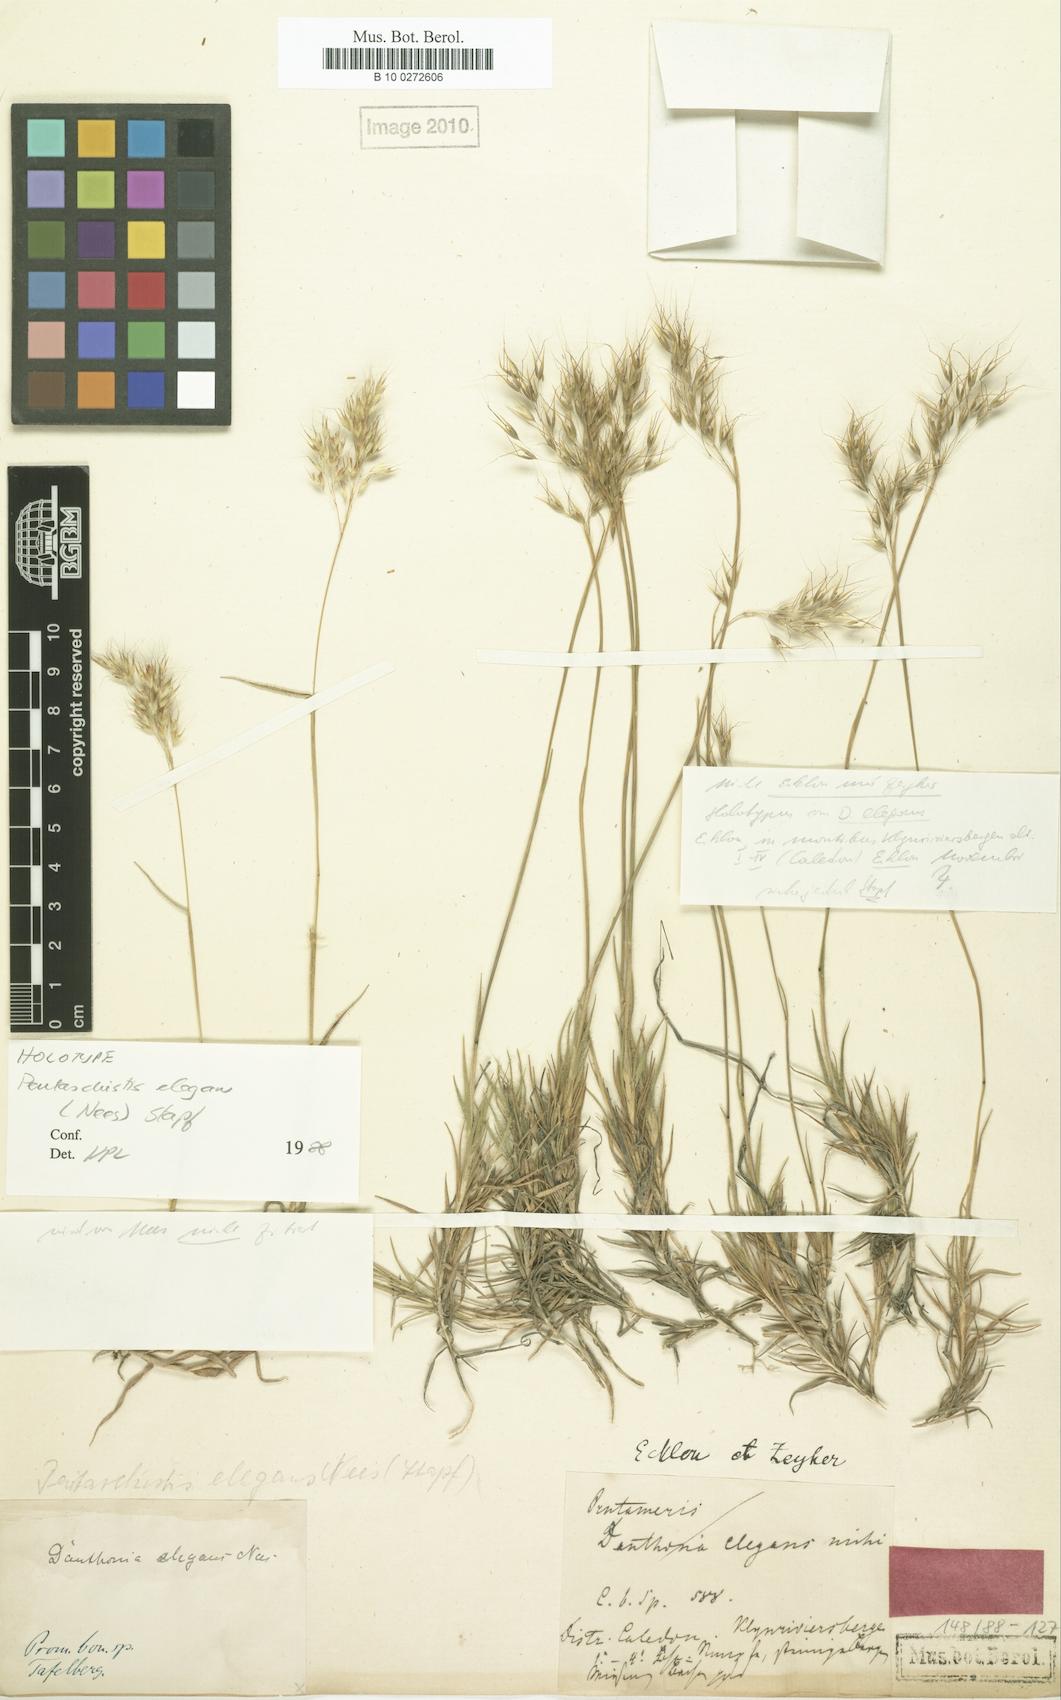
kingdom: Plantae
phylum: Tracheophyta
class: Liliopsida
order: Poales
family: Poaceae
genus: Pentameris
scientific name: Pentameris elegans
